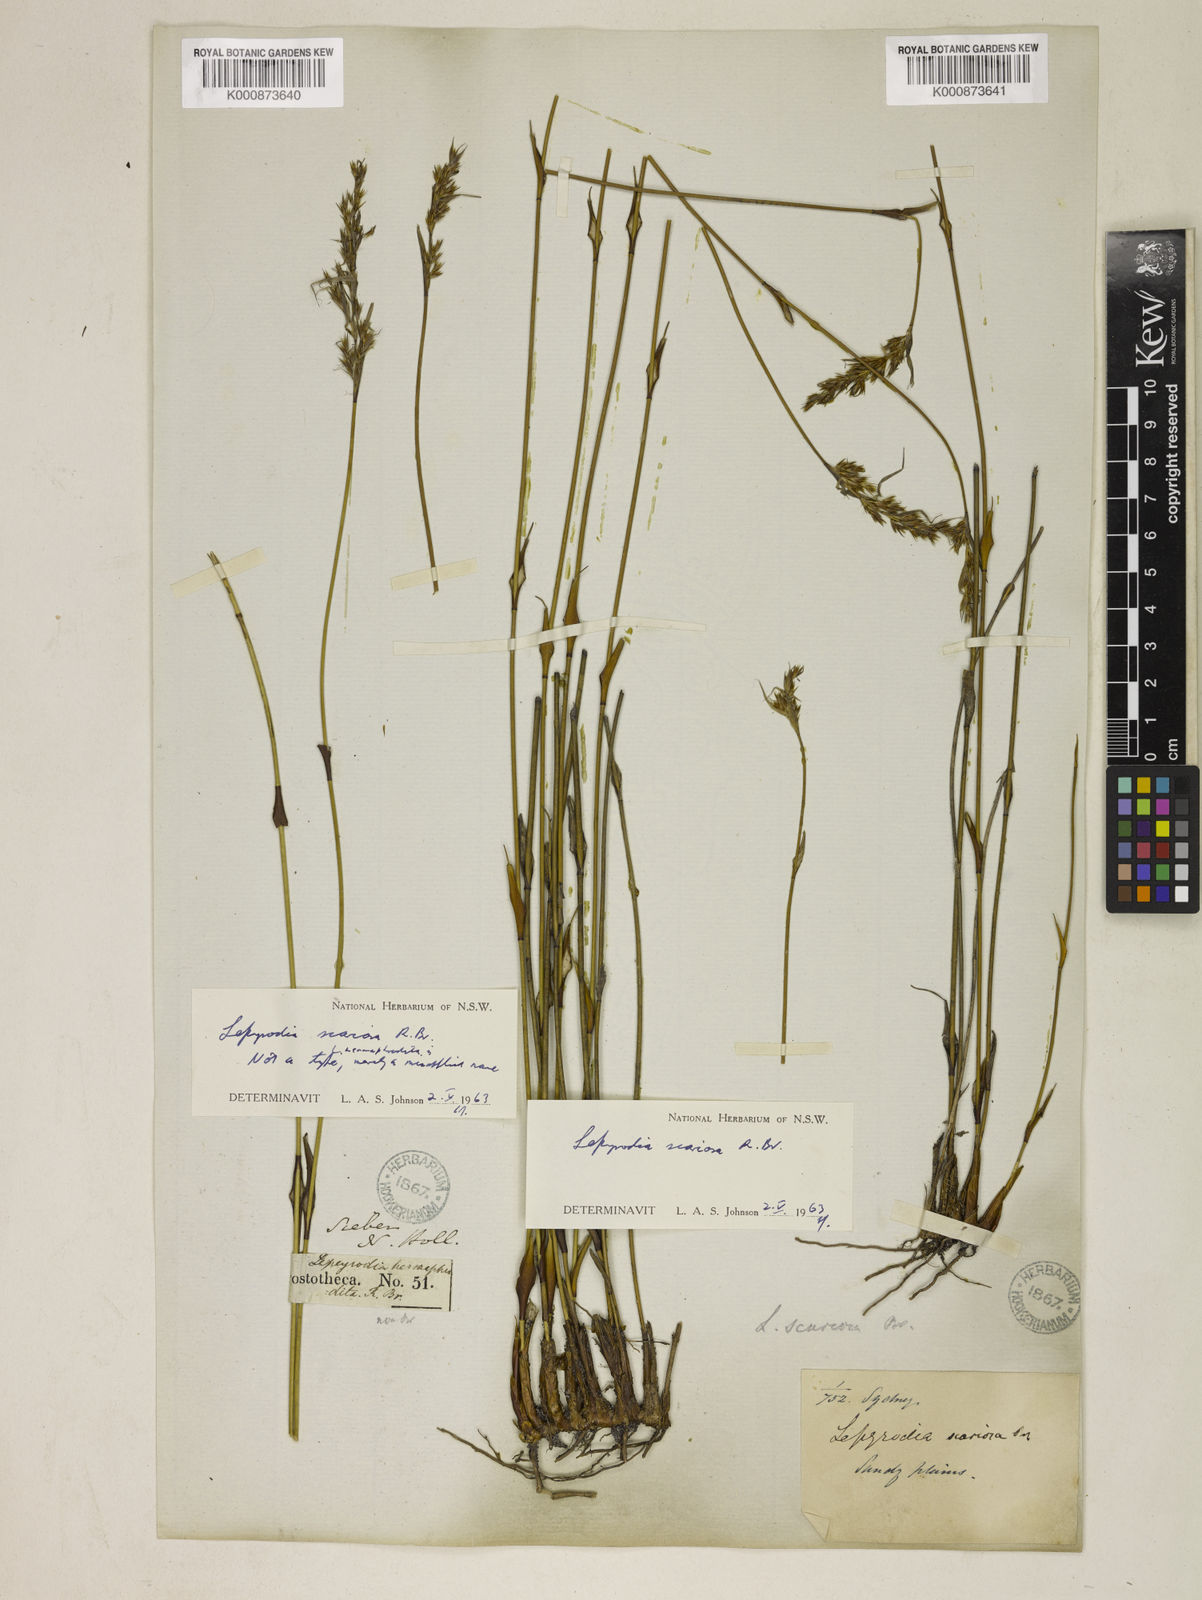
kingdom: Plantae
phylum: Tracheophyta
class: Liliopsida
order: Poales
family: Restionaceae
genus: Lepyrodia
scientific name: Lepyrodia scariosa
